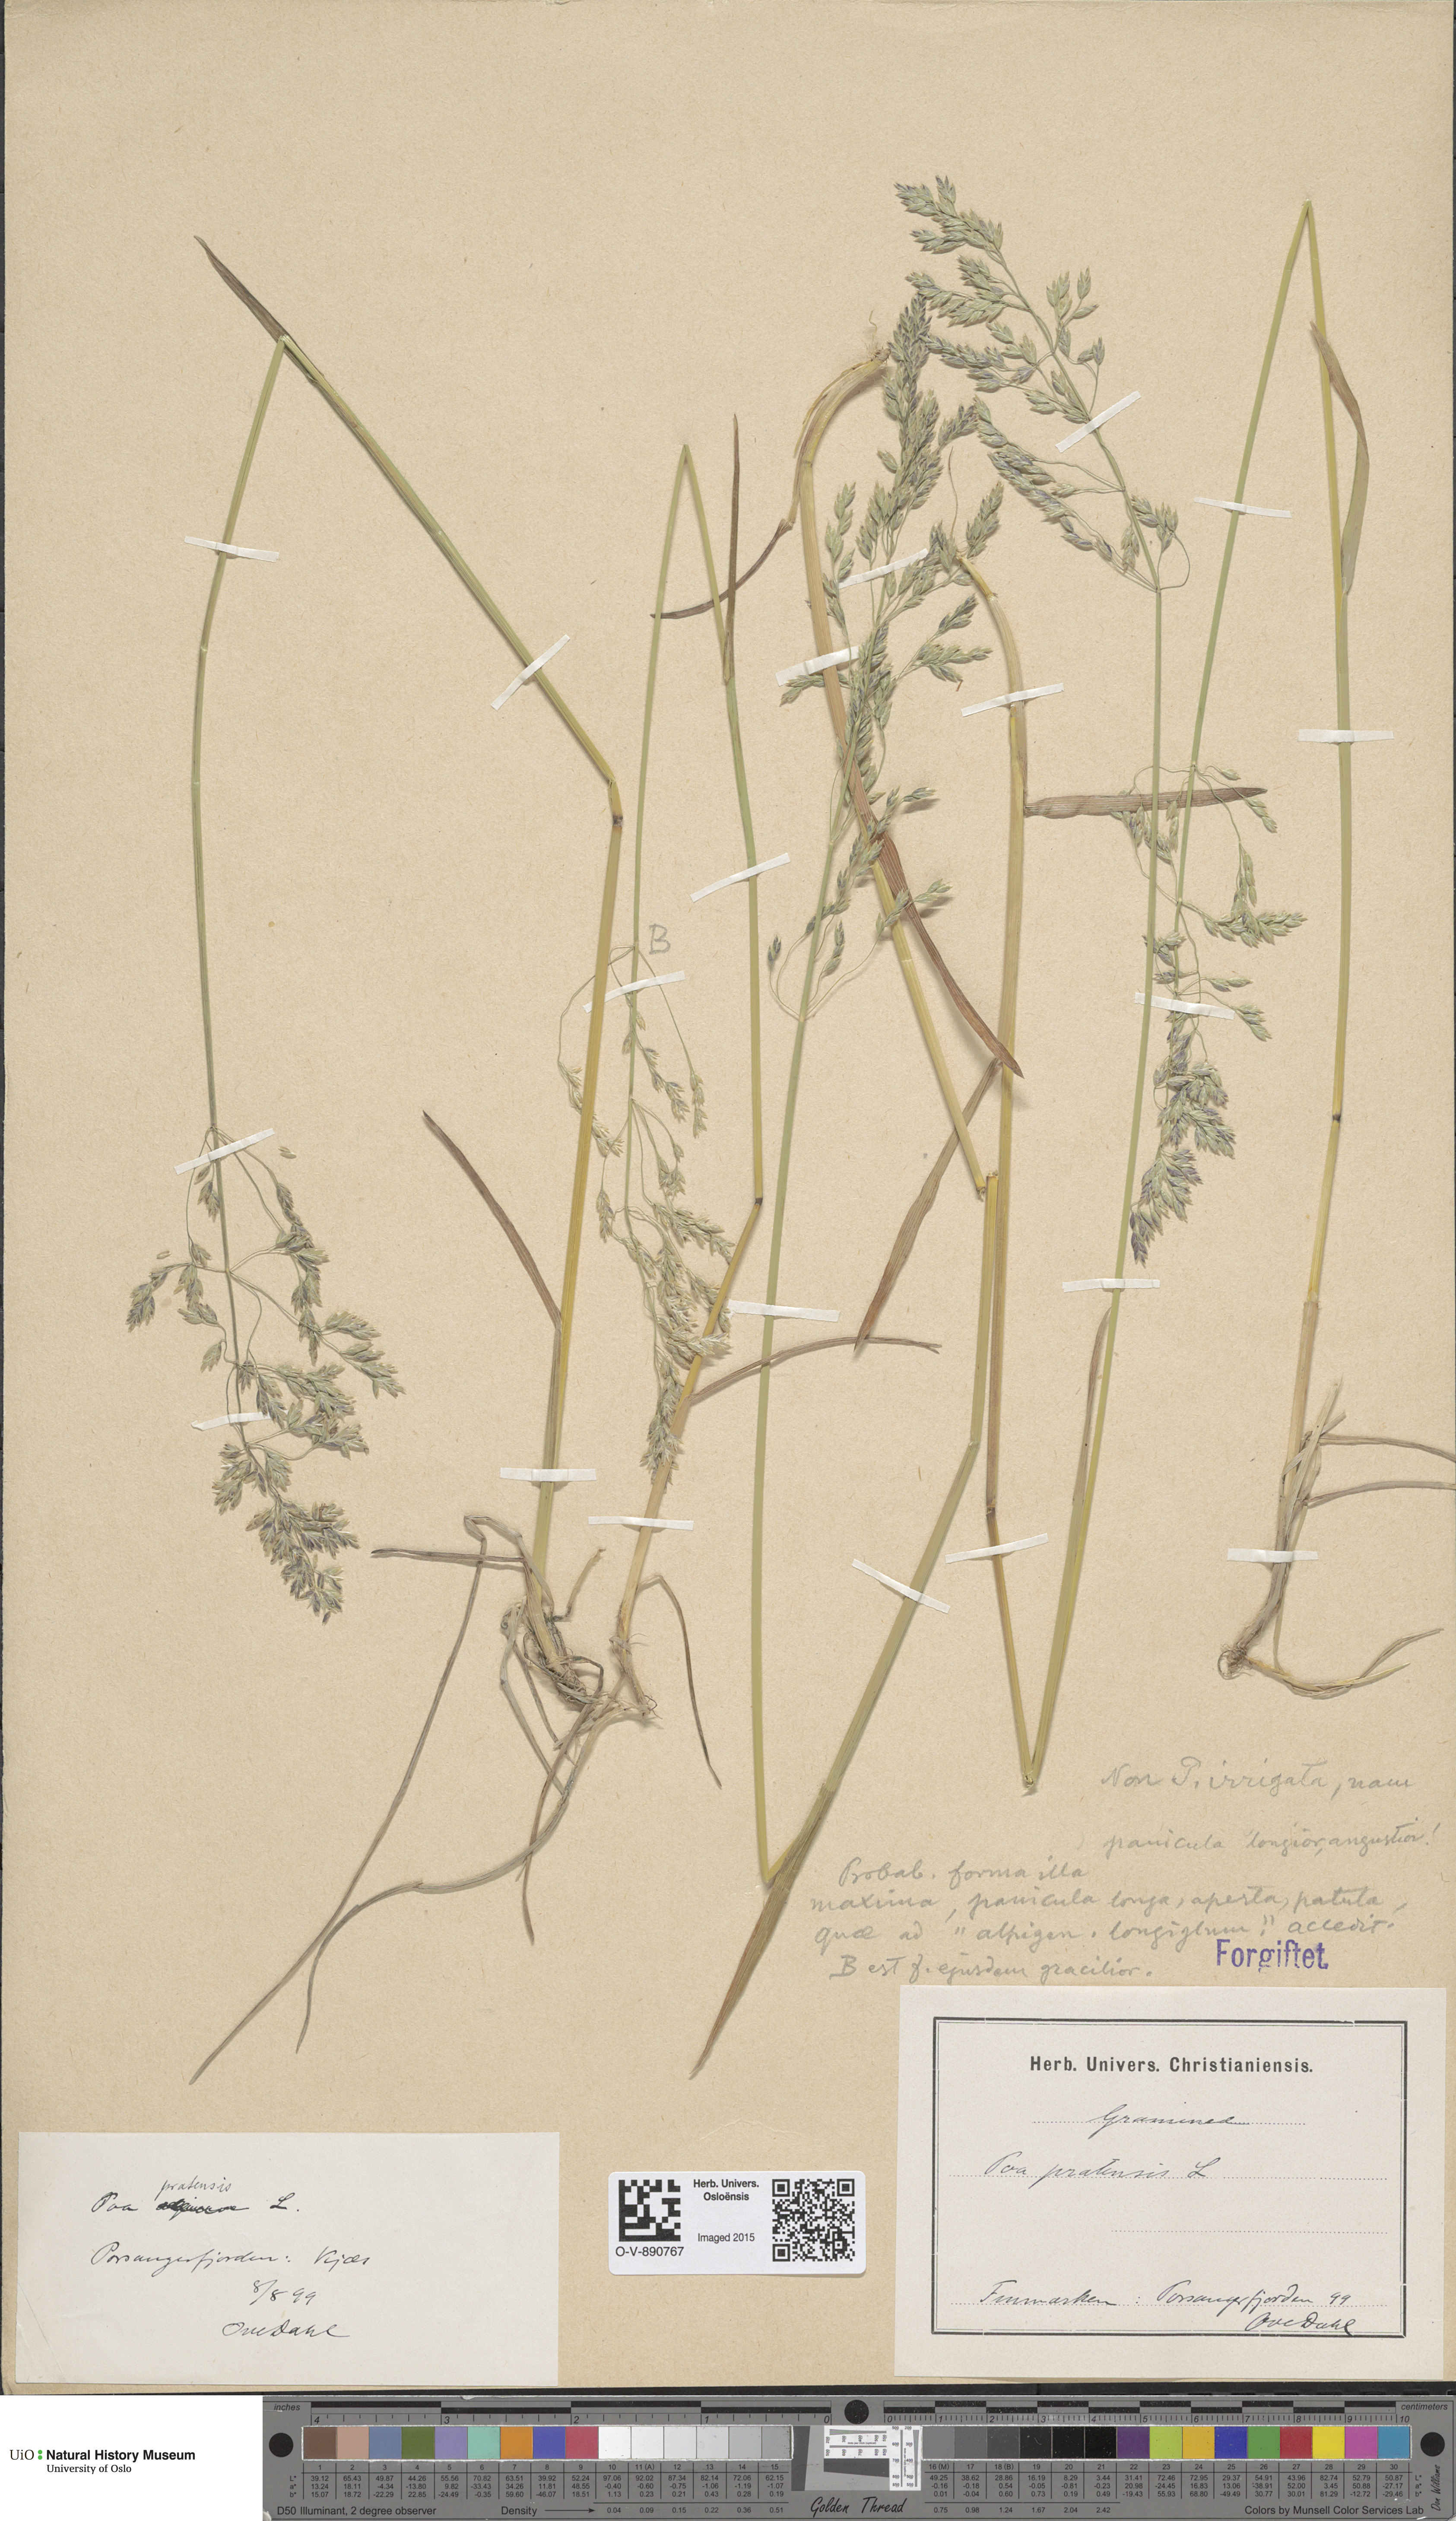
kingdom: Plantae
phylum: Tracheophyta
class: Liliopsida
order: Poales
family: Poaceae
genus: Poa
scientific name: Poa alpigena
